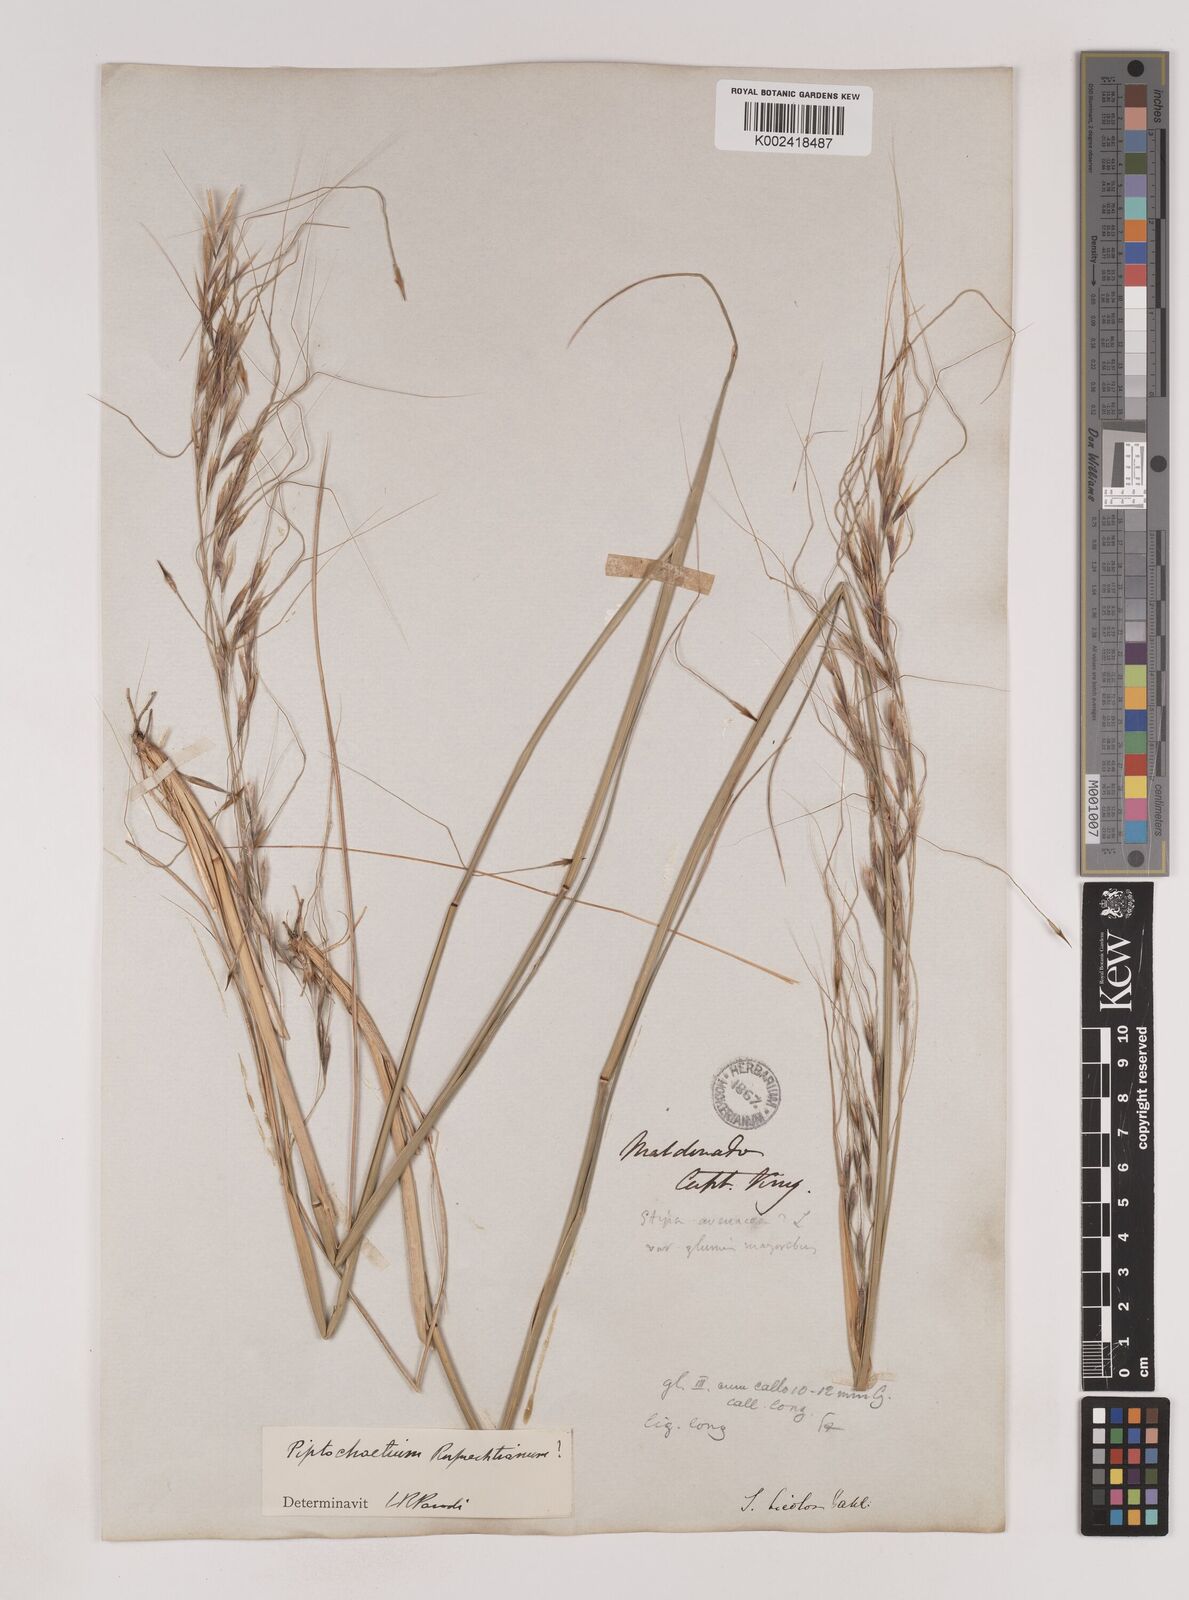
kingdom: Plantae
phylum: Tracheophyta
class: Liliopsida
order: Poales
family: Poaceae
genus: Piptochaetium
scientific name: Piptochaetium bicolor
